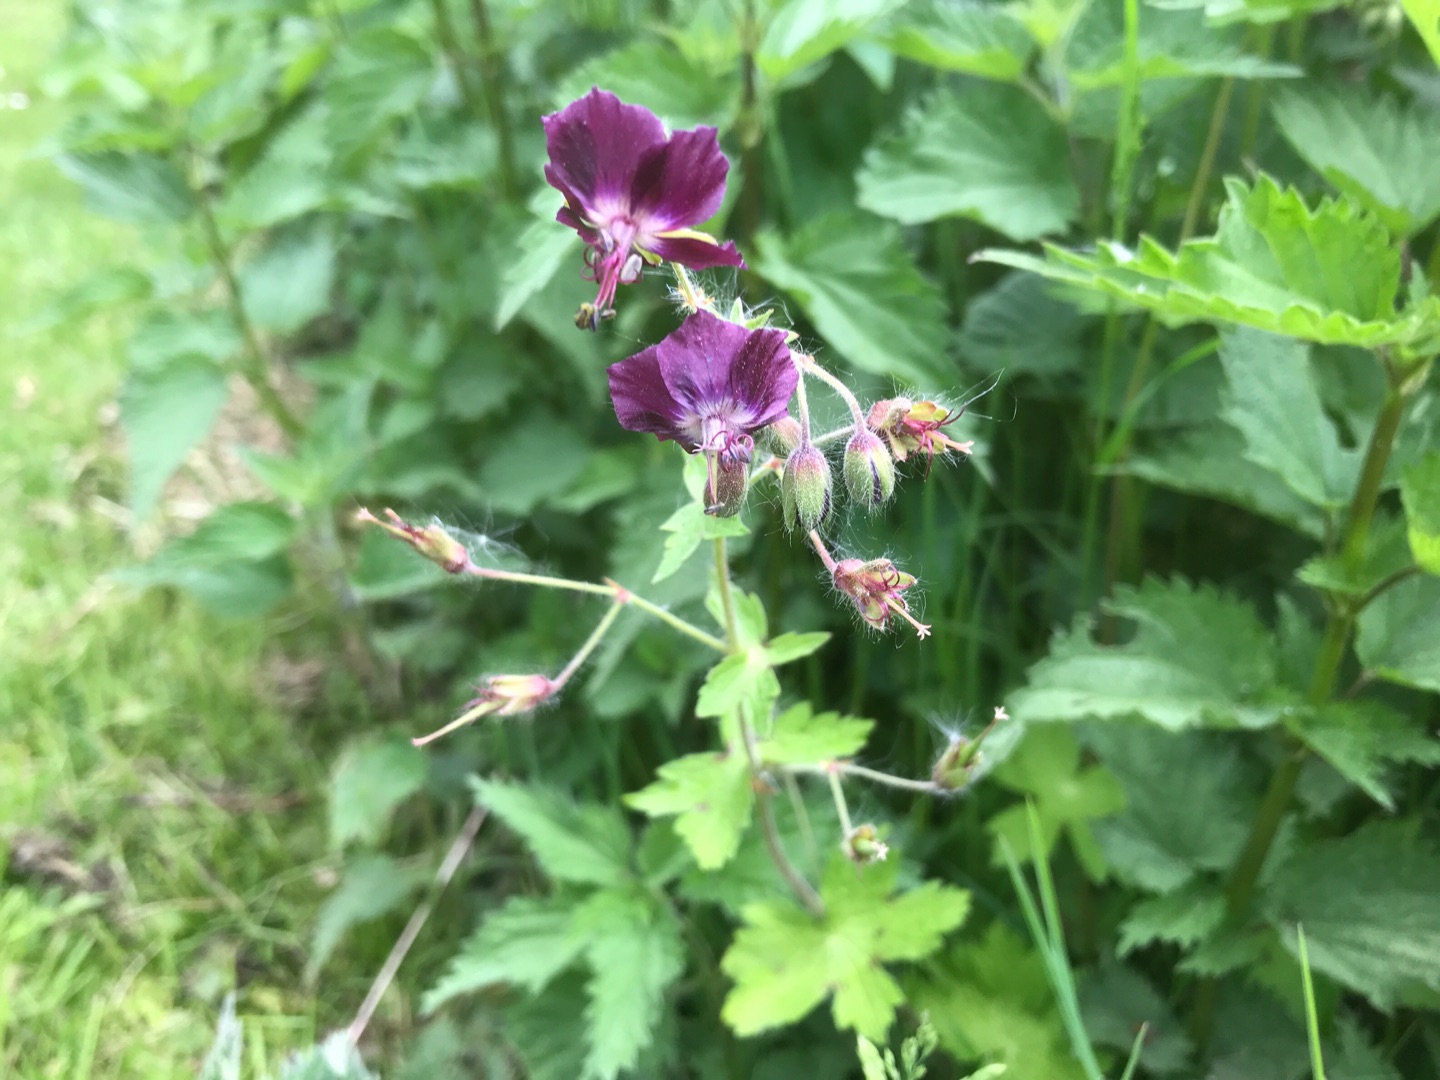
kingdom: Plantae
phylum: Tracheophyta
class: Magnoliopsida
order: Geraniales
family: Geraniaceae
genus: Geranium
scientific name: Geranium phaeum
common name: Bølgekronet storkenæb
